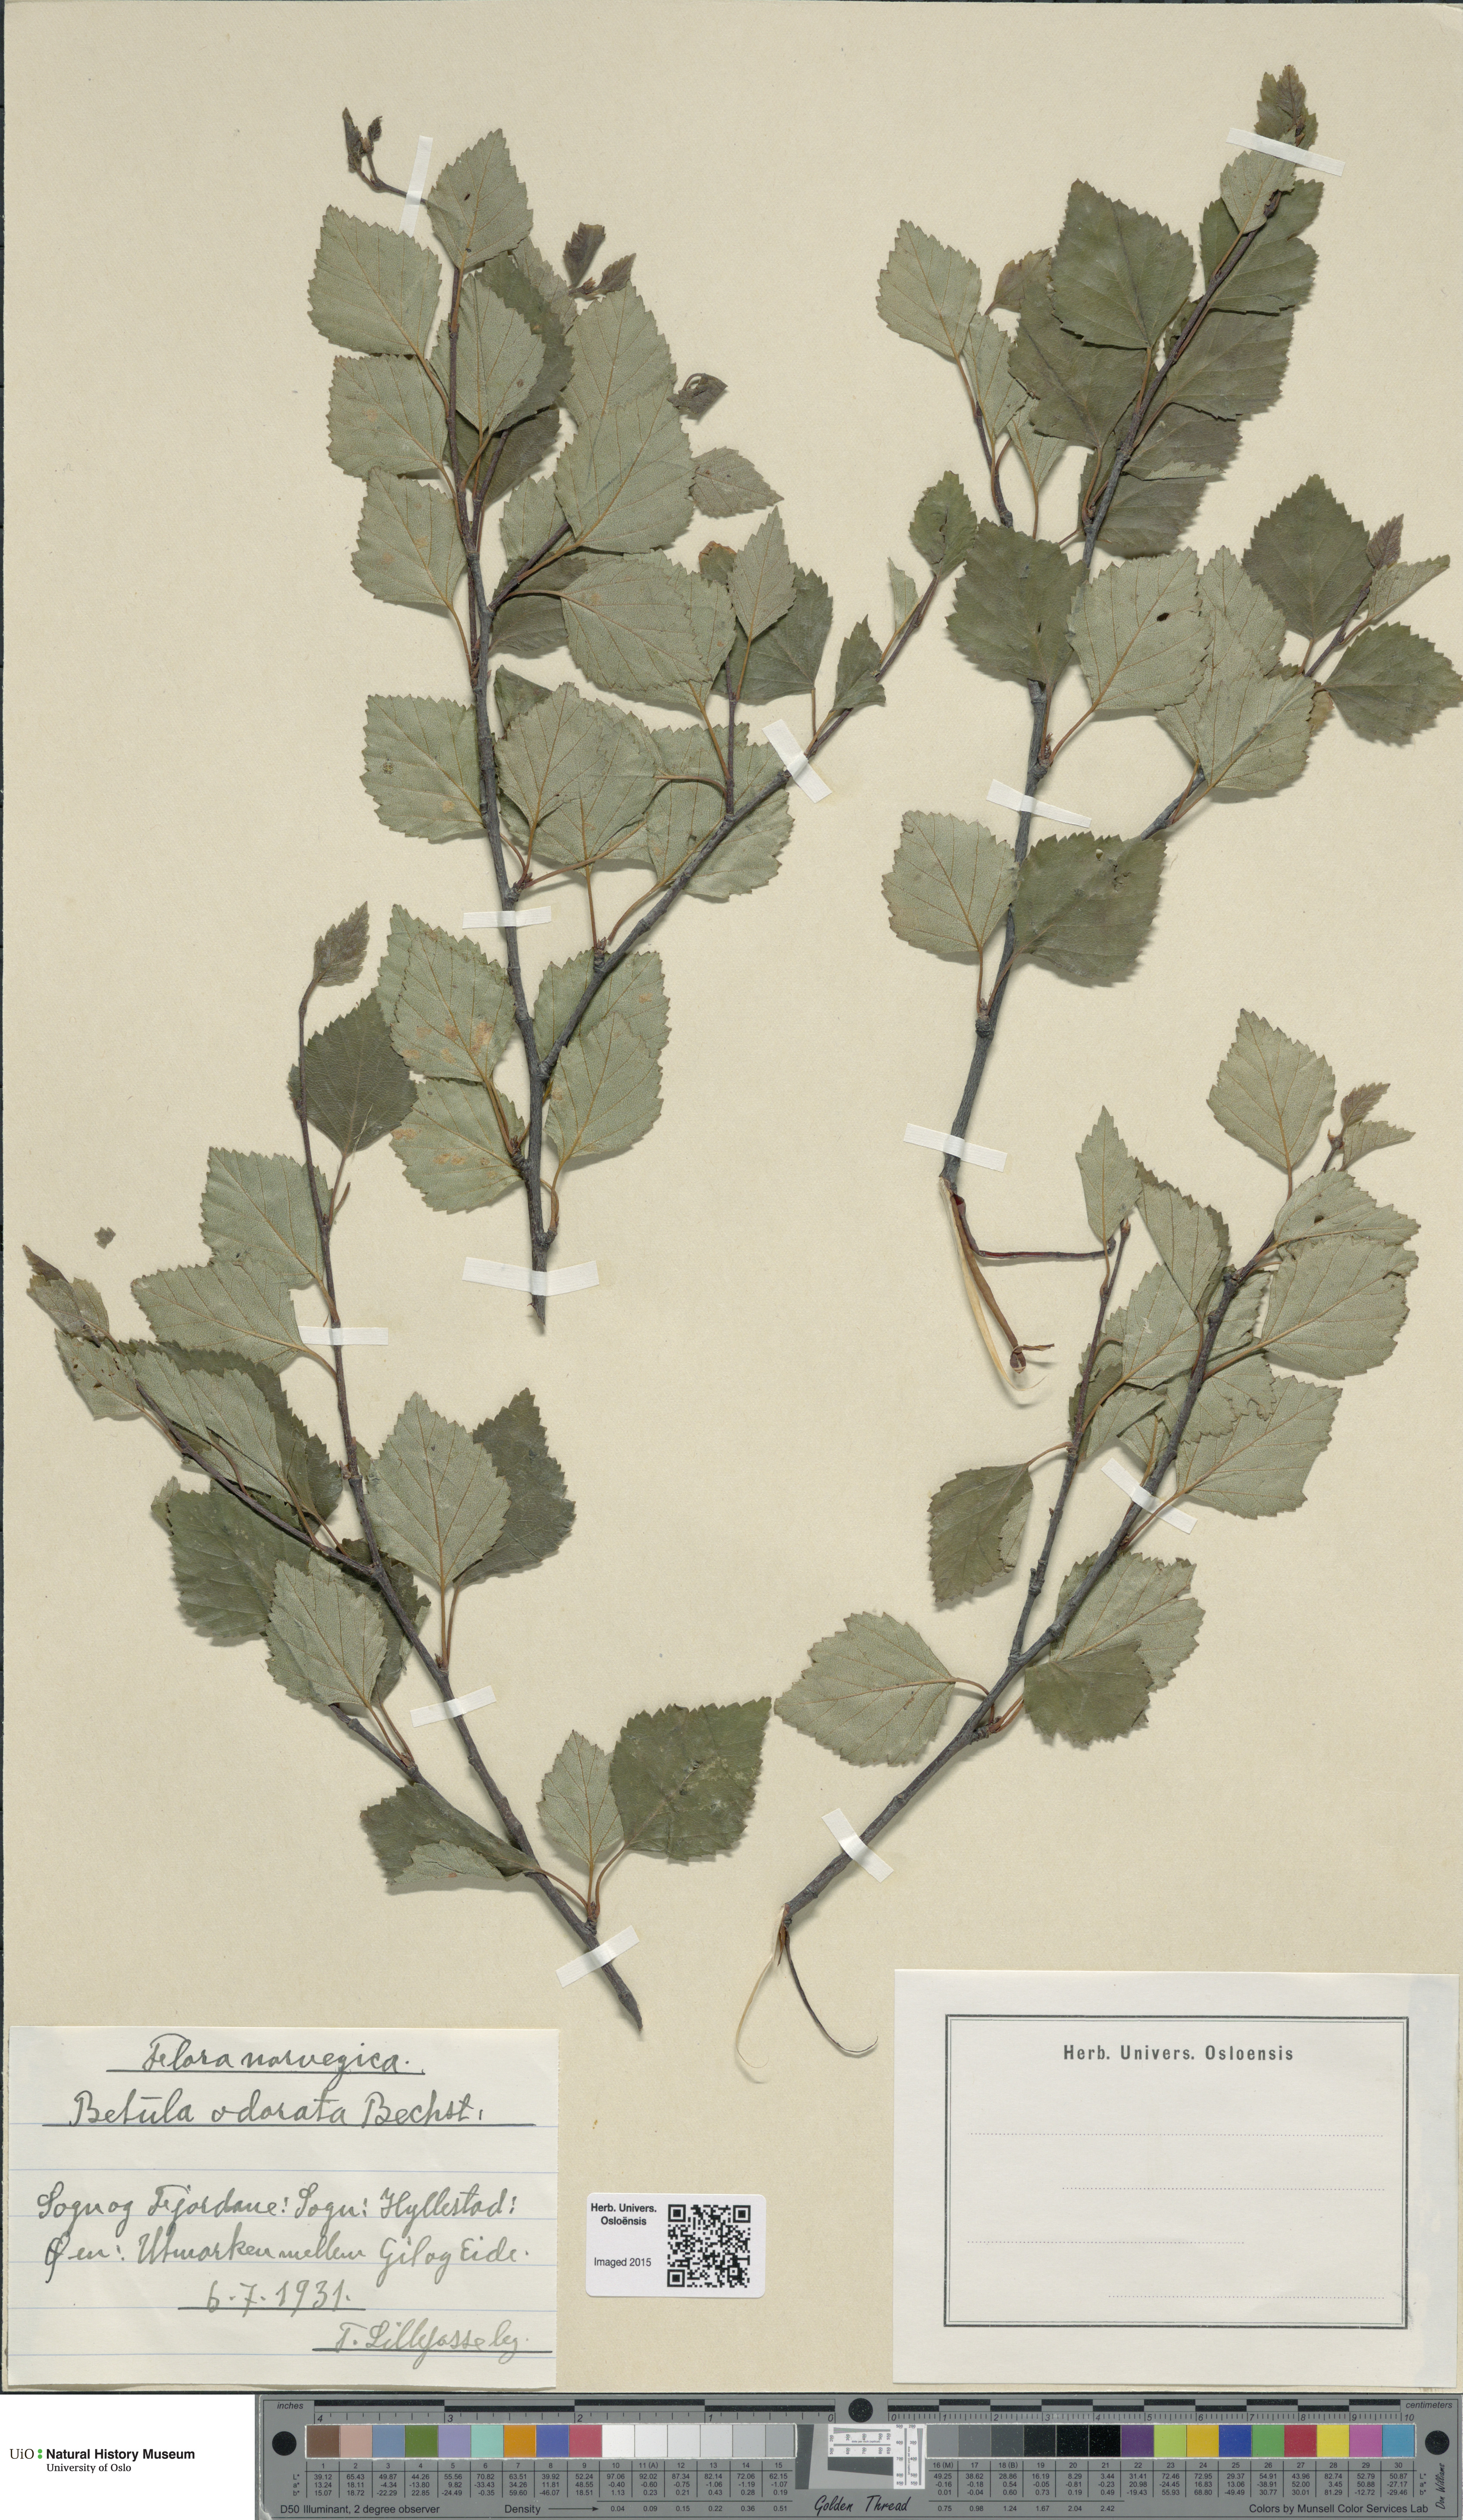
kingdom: Plantae
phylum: Tracheophyta
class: Magnoliopsida
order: Fagales
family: Betulaceae
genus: Betula
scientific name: Betula pubescens
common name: Downy birch
